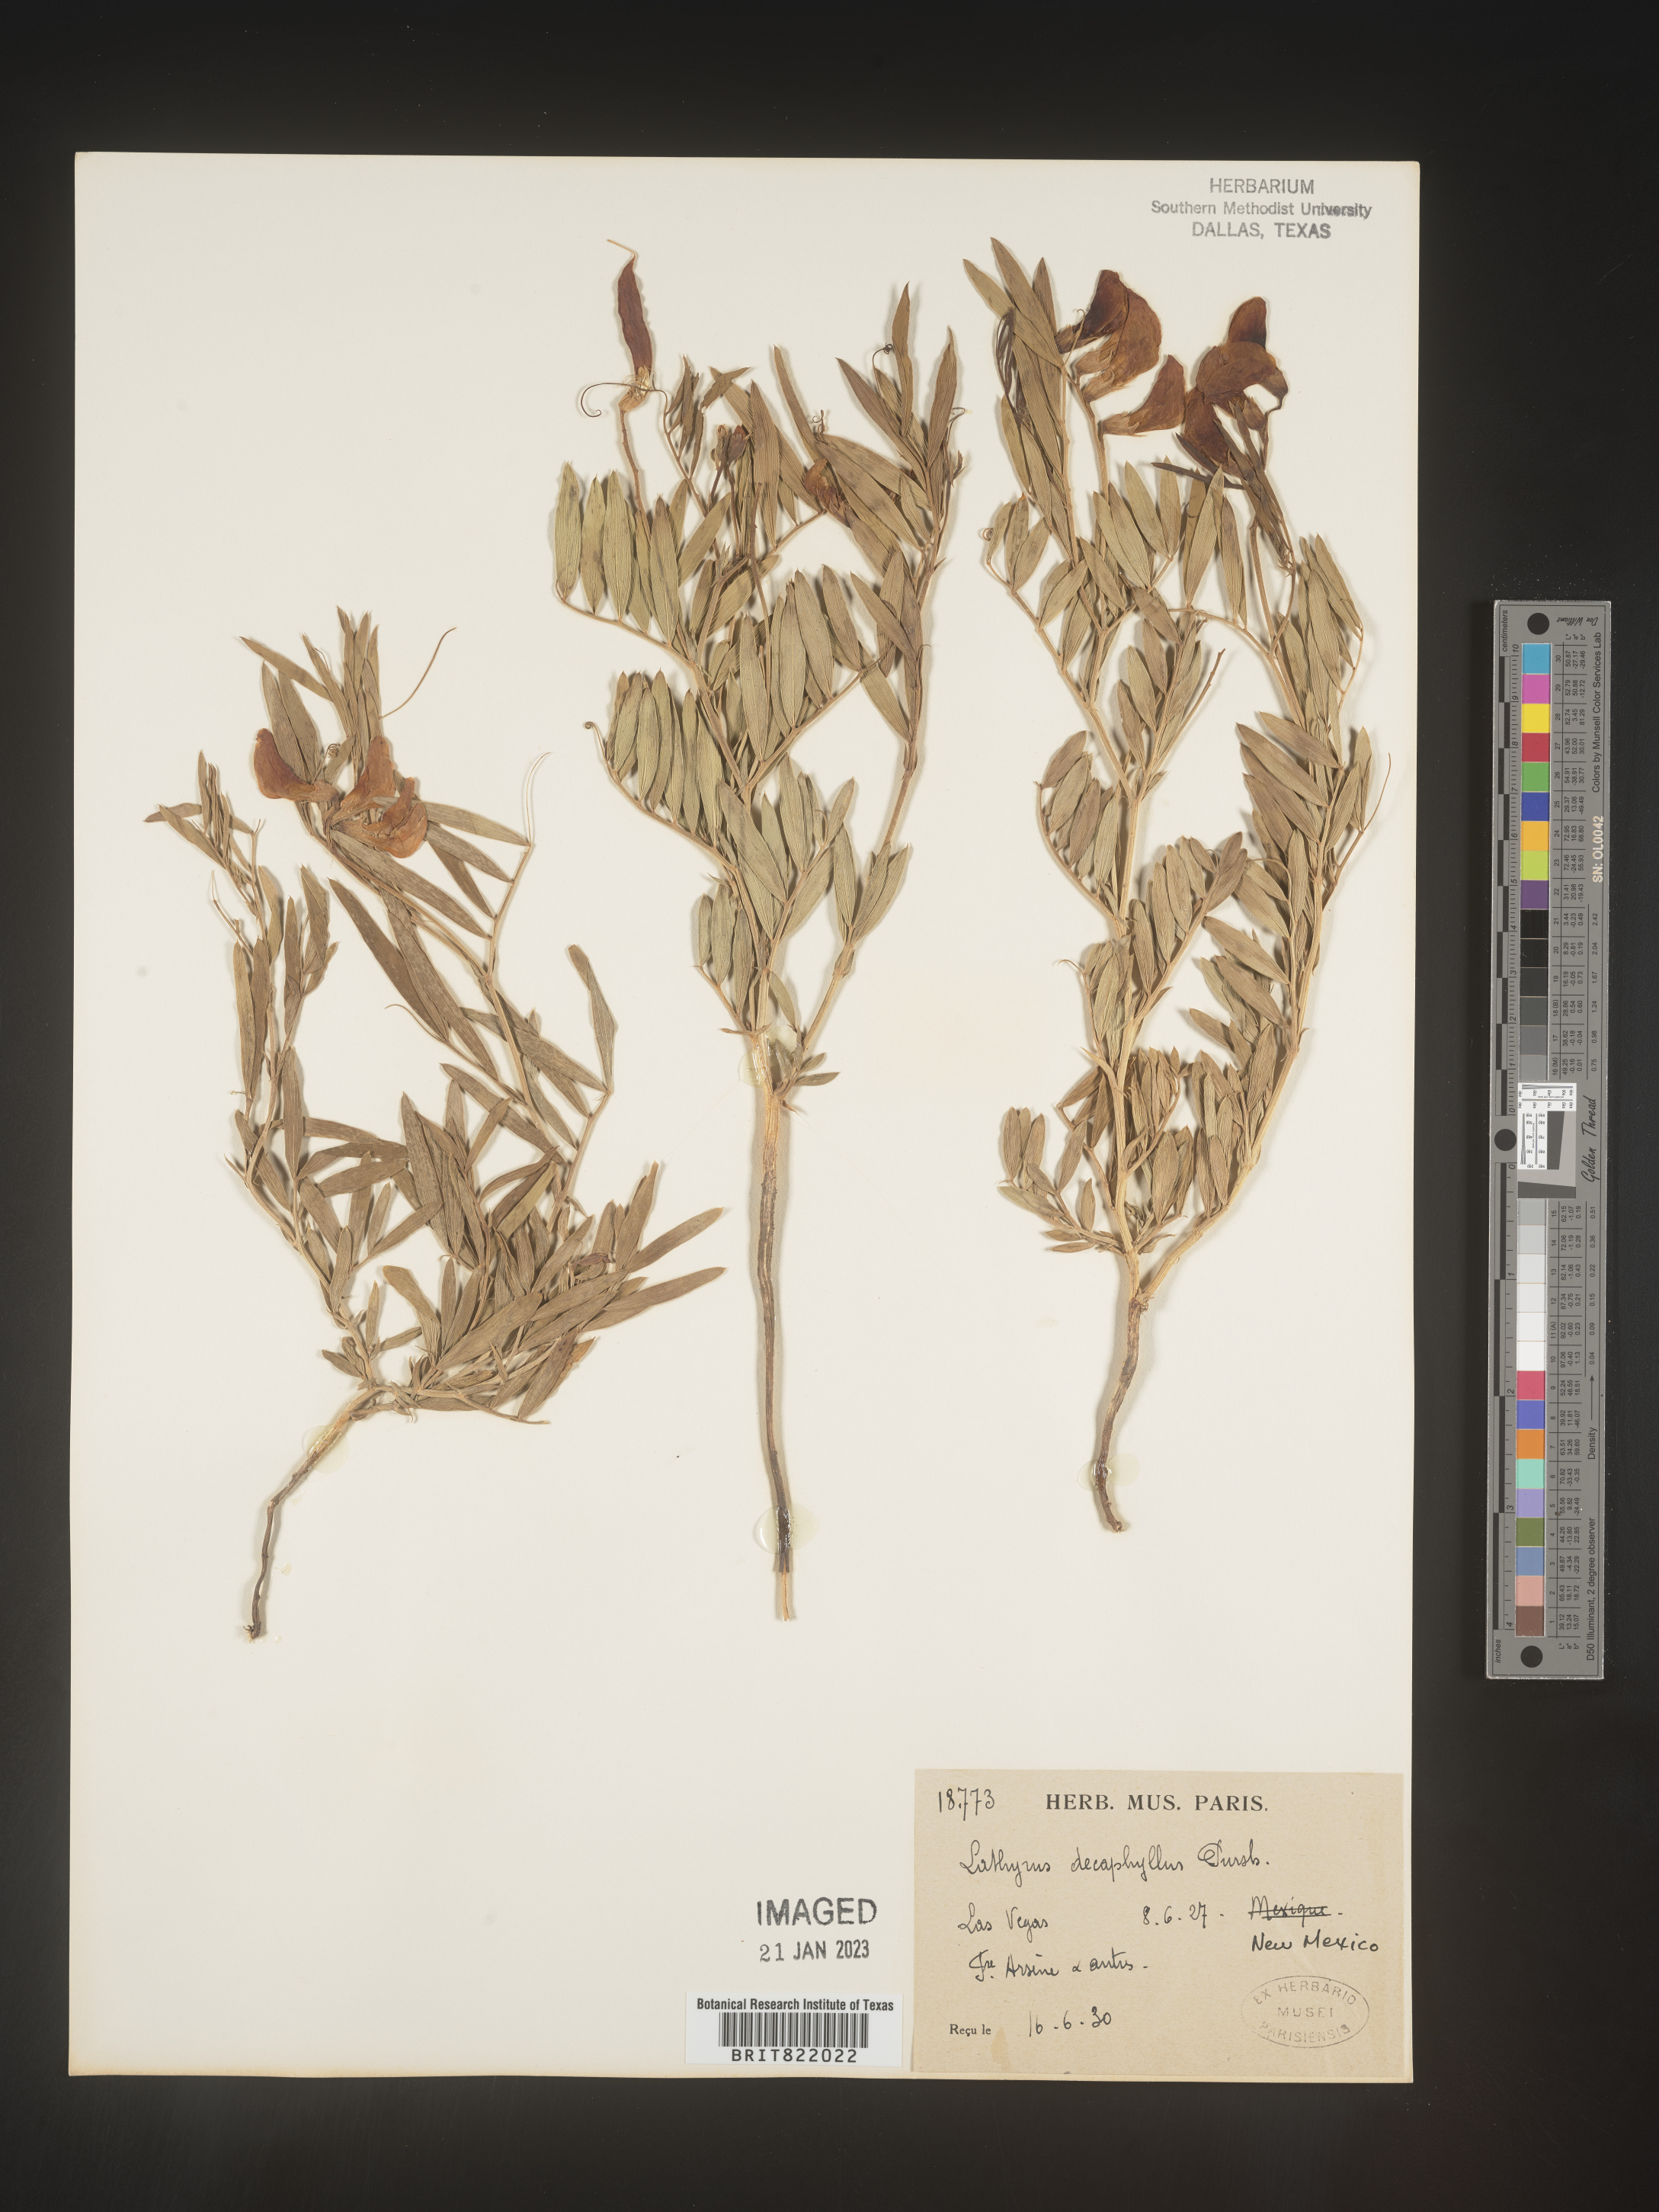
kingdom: Plantae
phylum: Tracheophyta
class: Magnoliopsida
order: Fabales
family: Fabaceae
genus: Lathyrus
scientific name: Lathyrus
